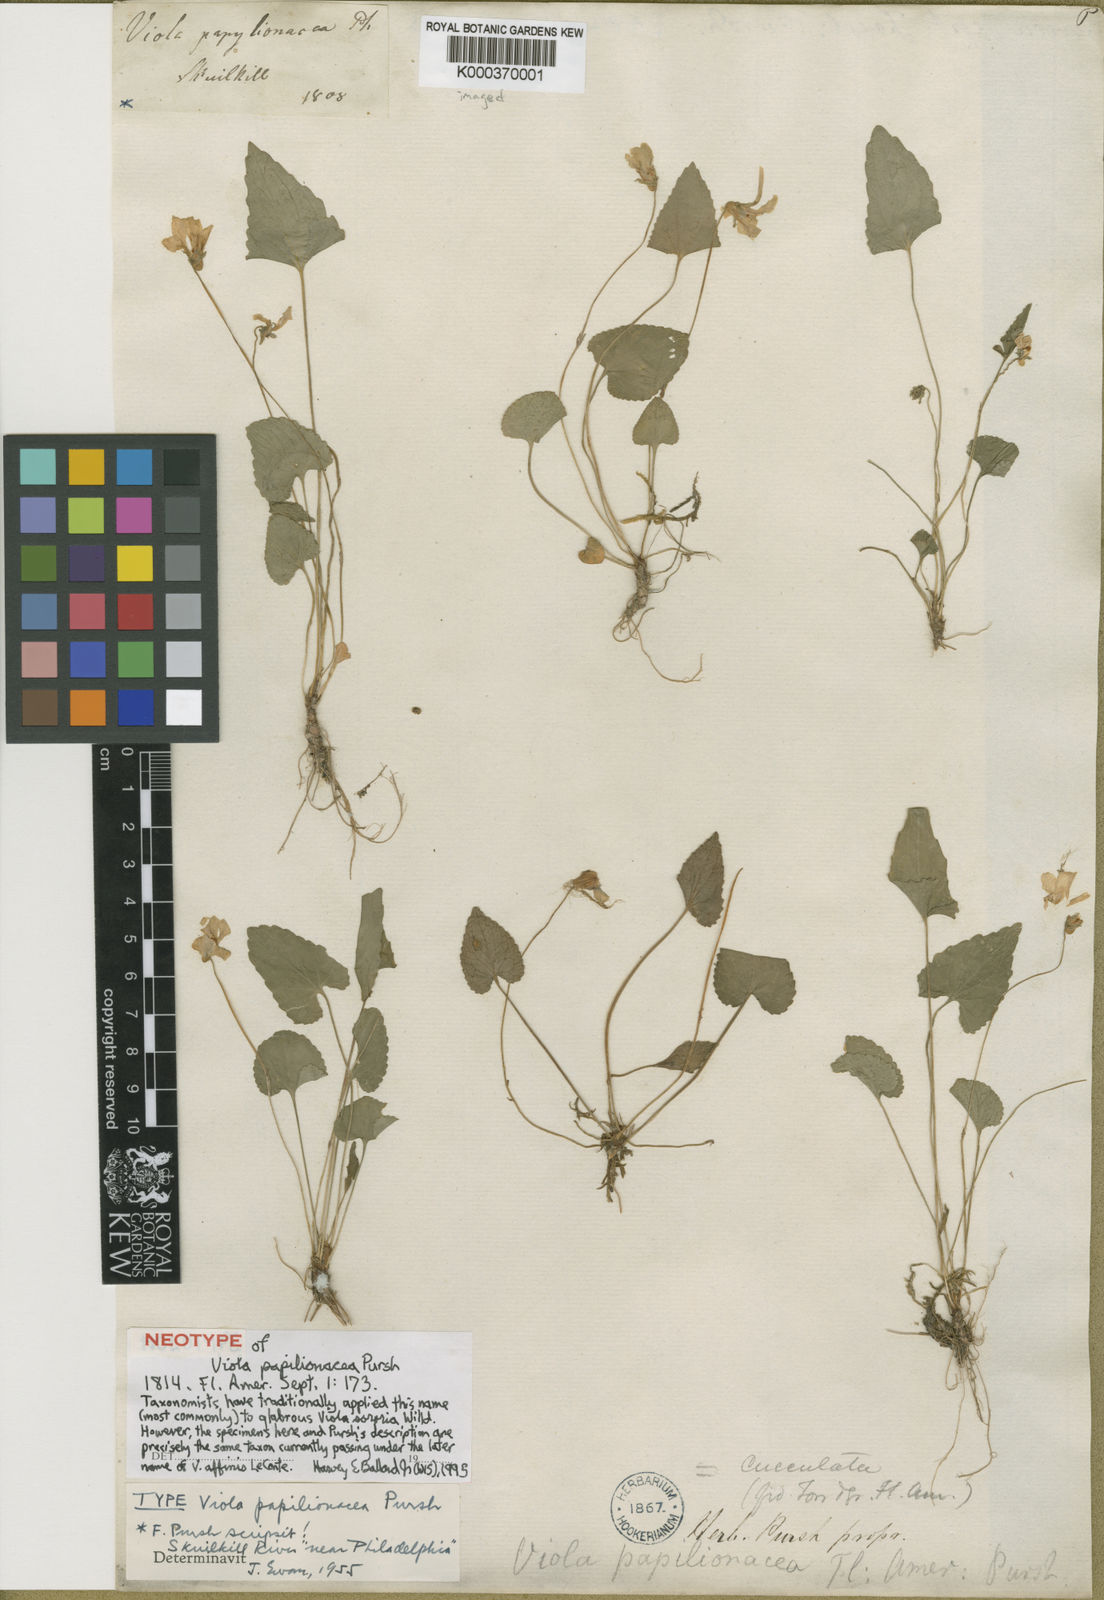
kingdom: Plantae
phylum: Tracheophyta
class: Magnoliopsida
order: Malpighiales
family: Violaceae
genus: Viola
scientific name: Viola sororia
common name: Dooryard violet
